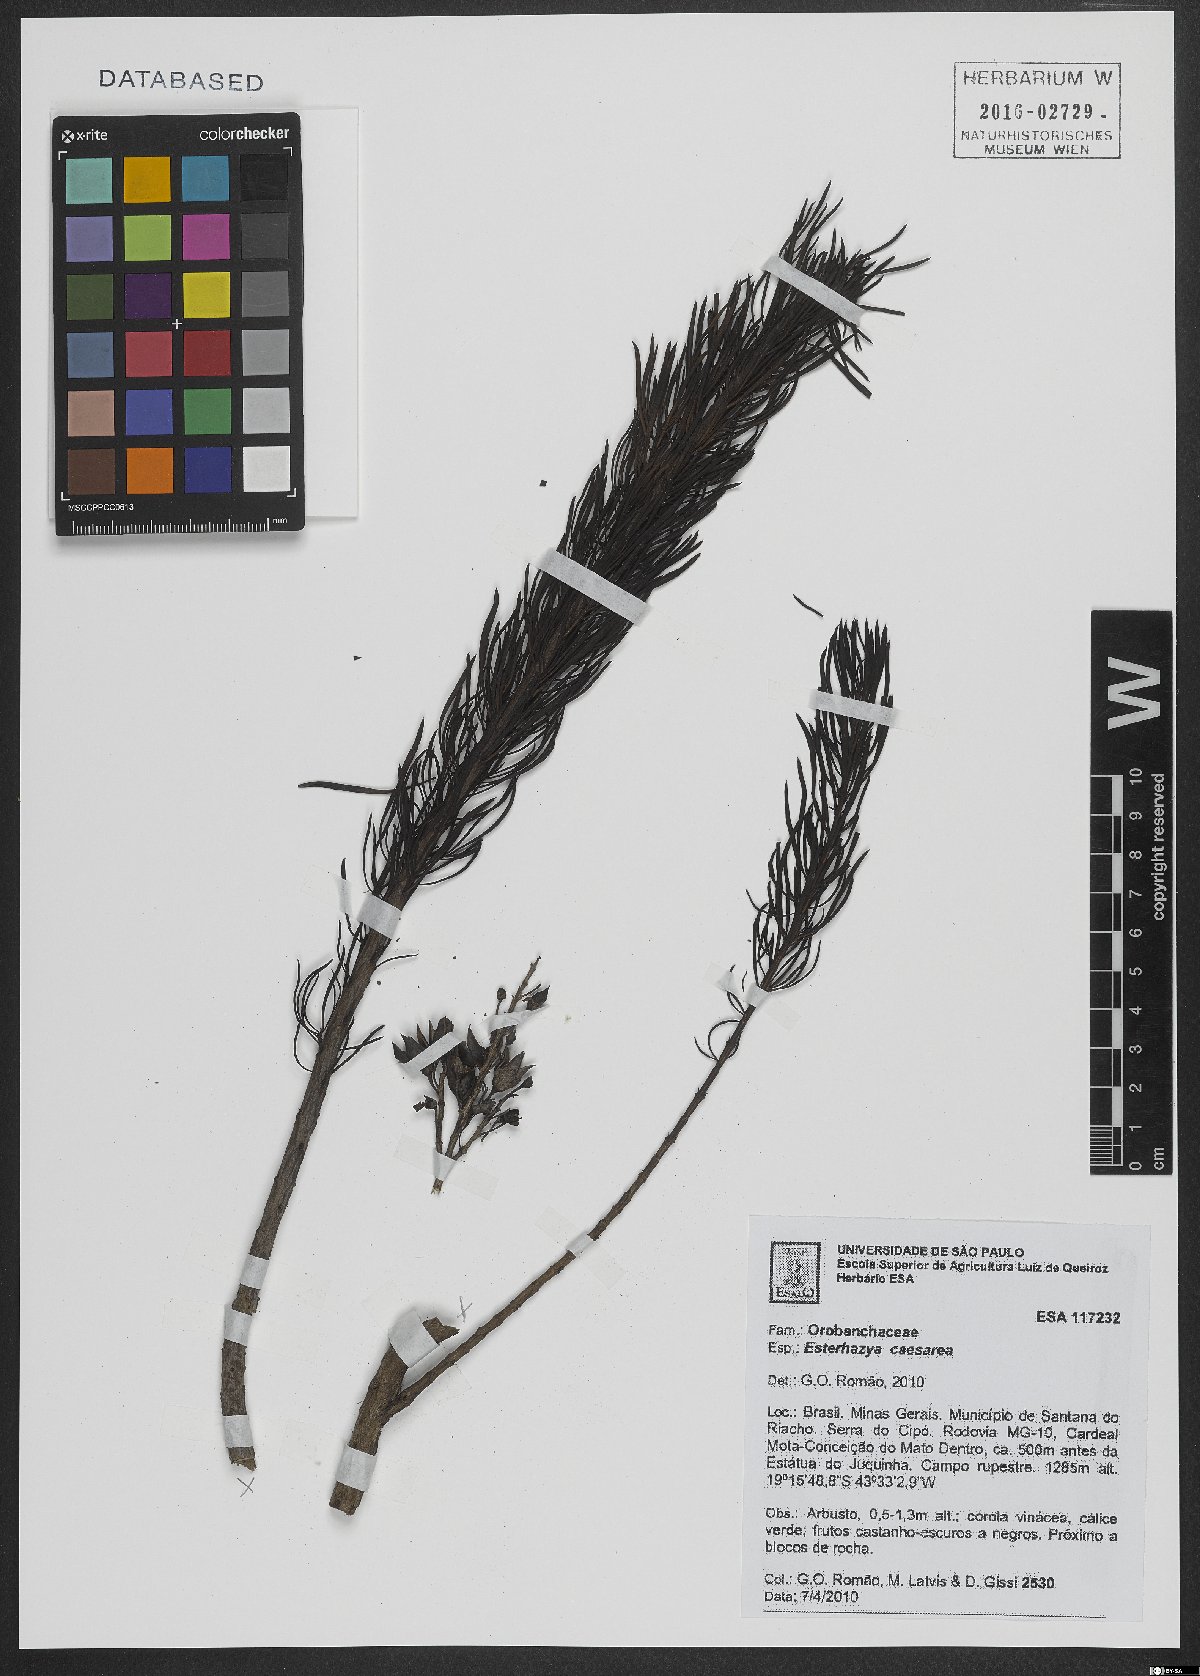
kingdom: Plantae
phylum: Tracheophyta
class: Magnoliopsida
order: Lamiales
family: Orobanchaceae
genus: Esterhazya
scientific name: Esterhazya
